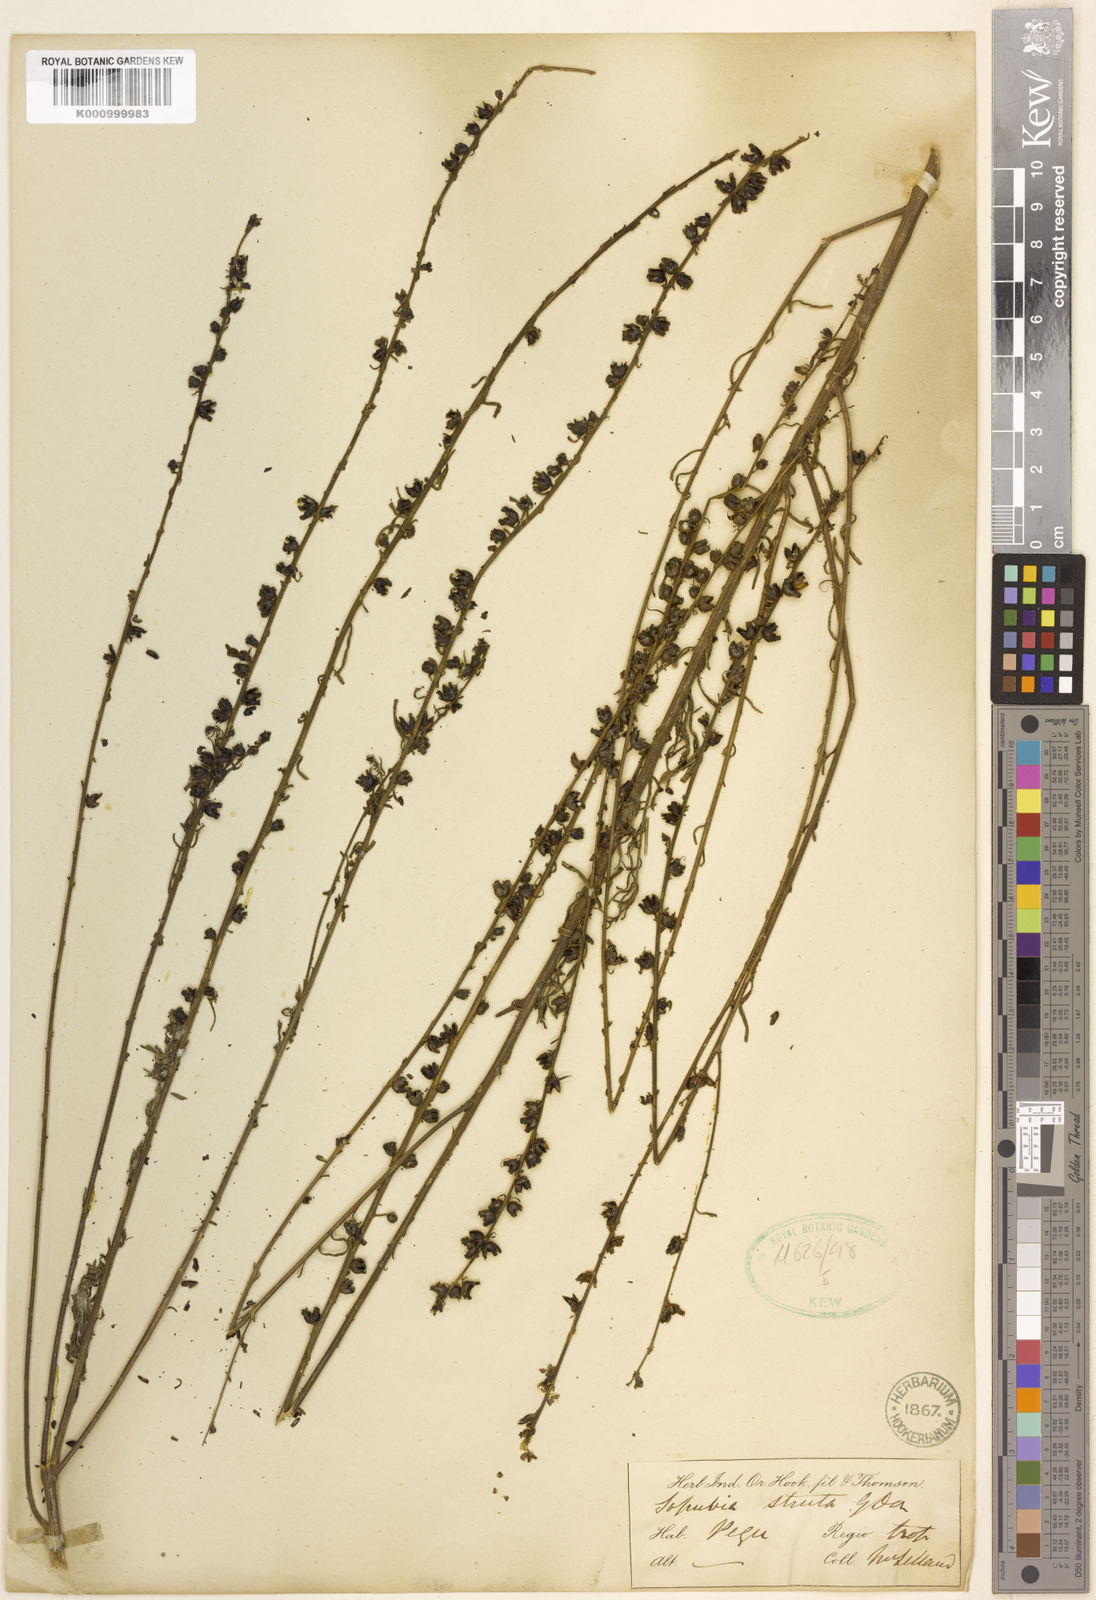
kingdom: Plantae
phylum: Tracheophyta
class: Magnoliopsida
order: Lamiales
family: Orobanchaceae
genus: Sopubia
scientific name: Sopubia stricta
